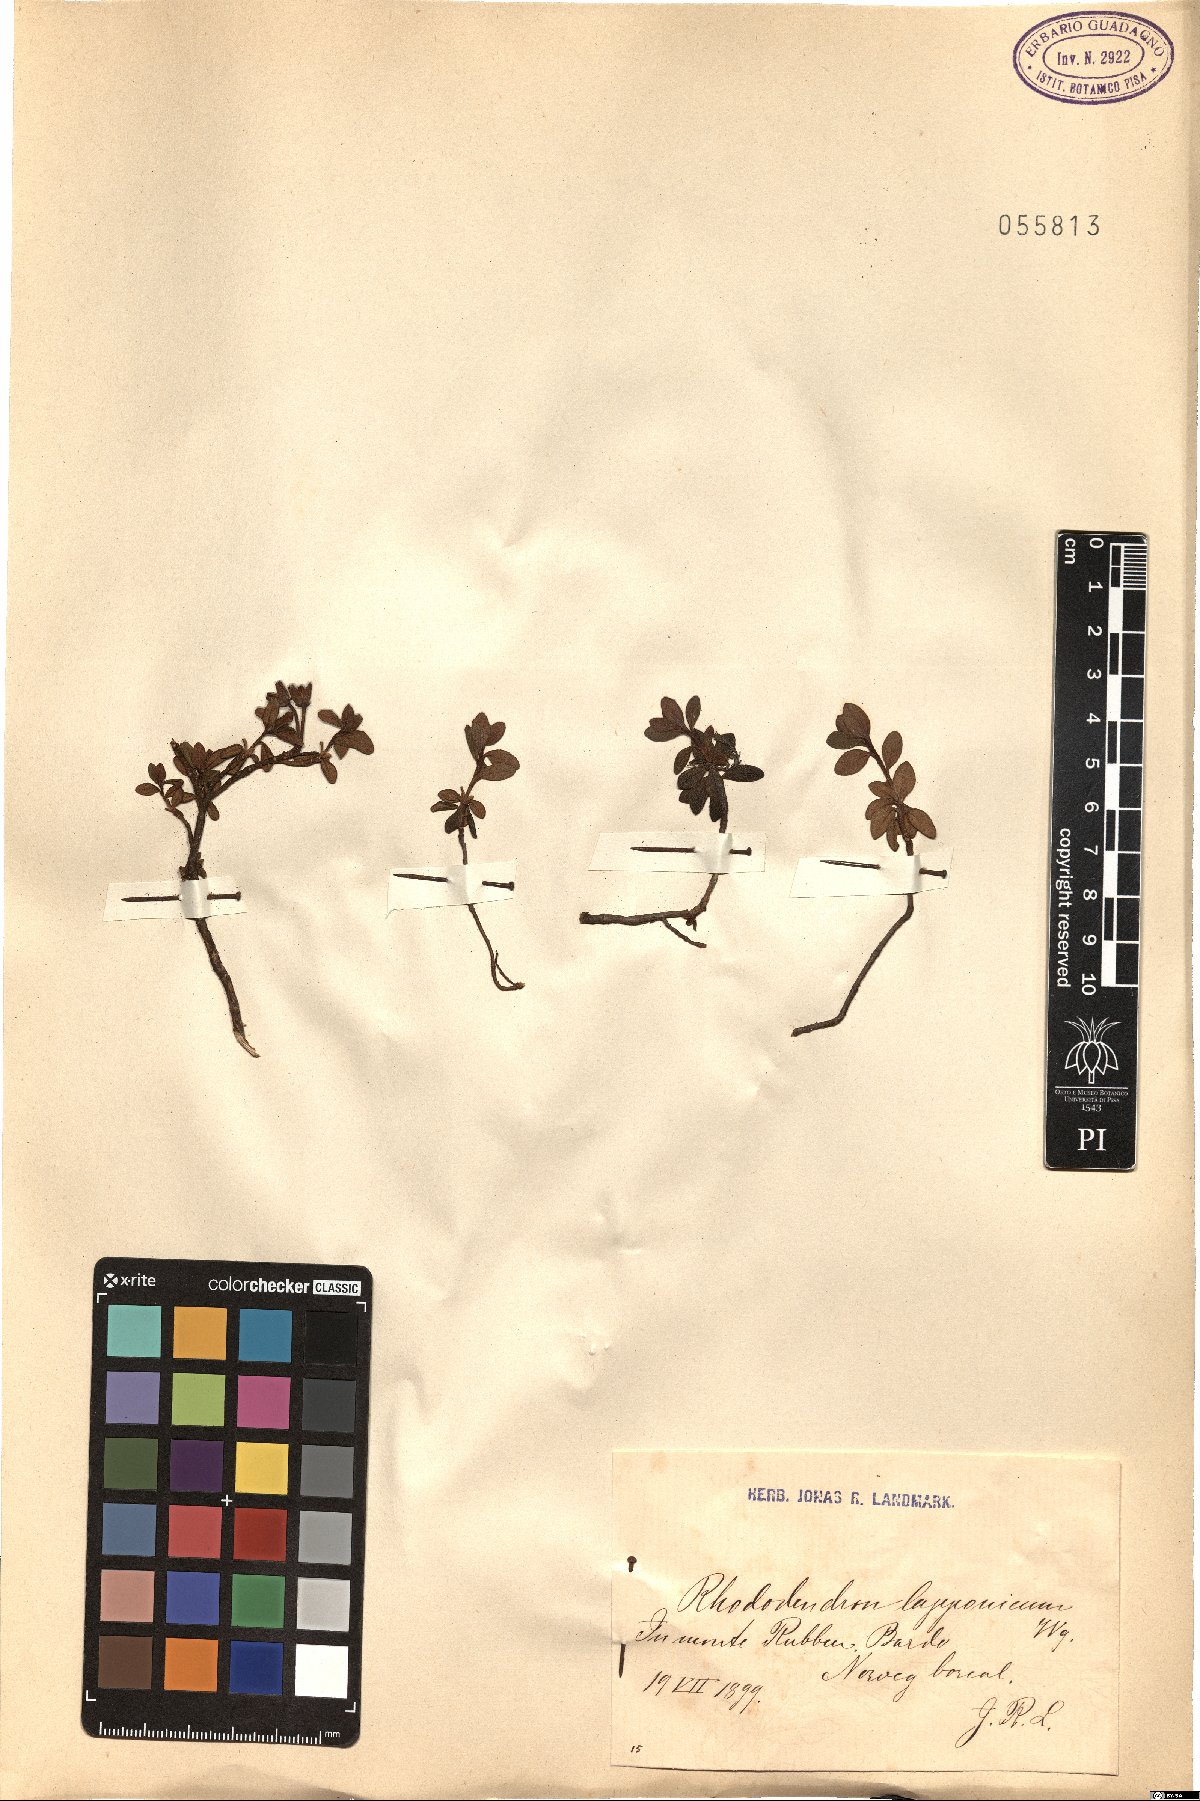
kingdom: Plantae
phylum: Tracheophyta
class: Magnoliopsida
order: Ericales
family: Ericaceae
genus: Rhododendron
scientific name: Rhododendron lapponicum
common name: Lapland rhododendron
